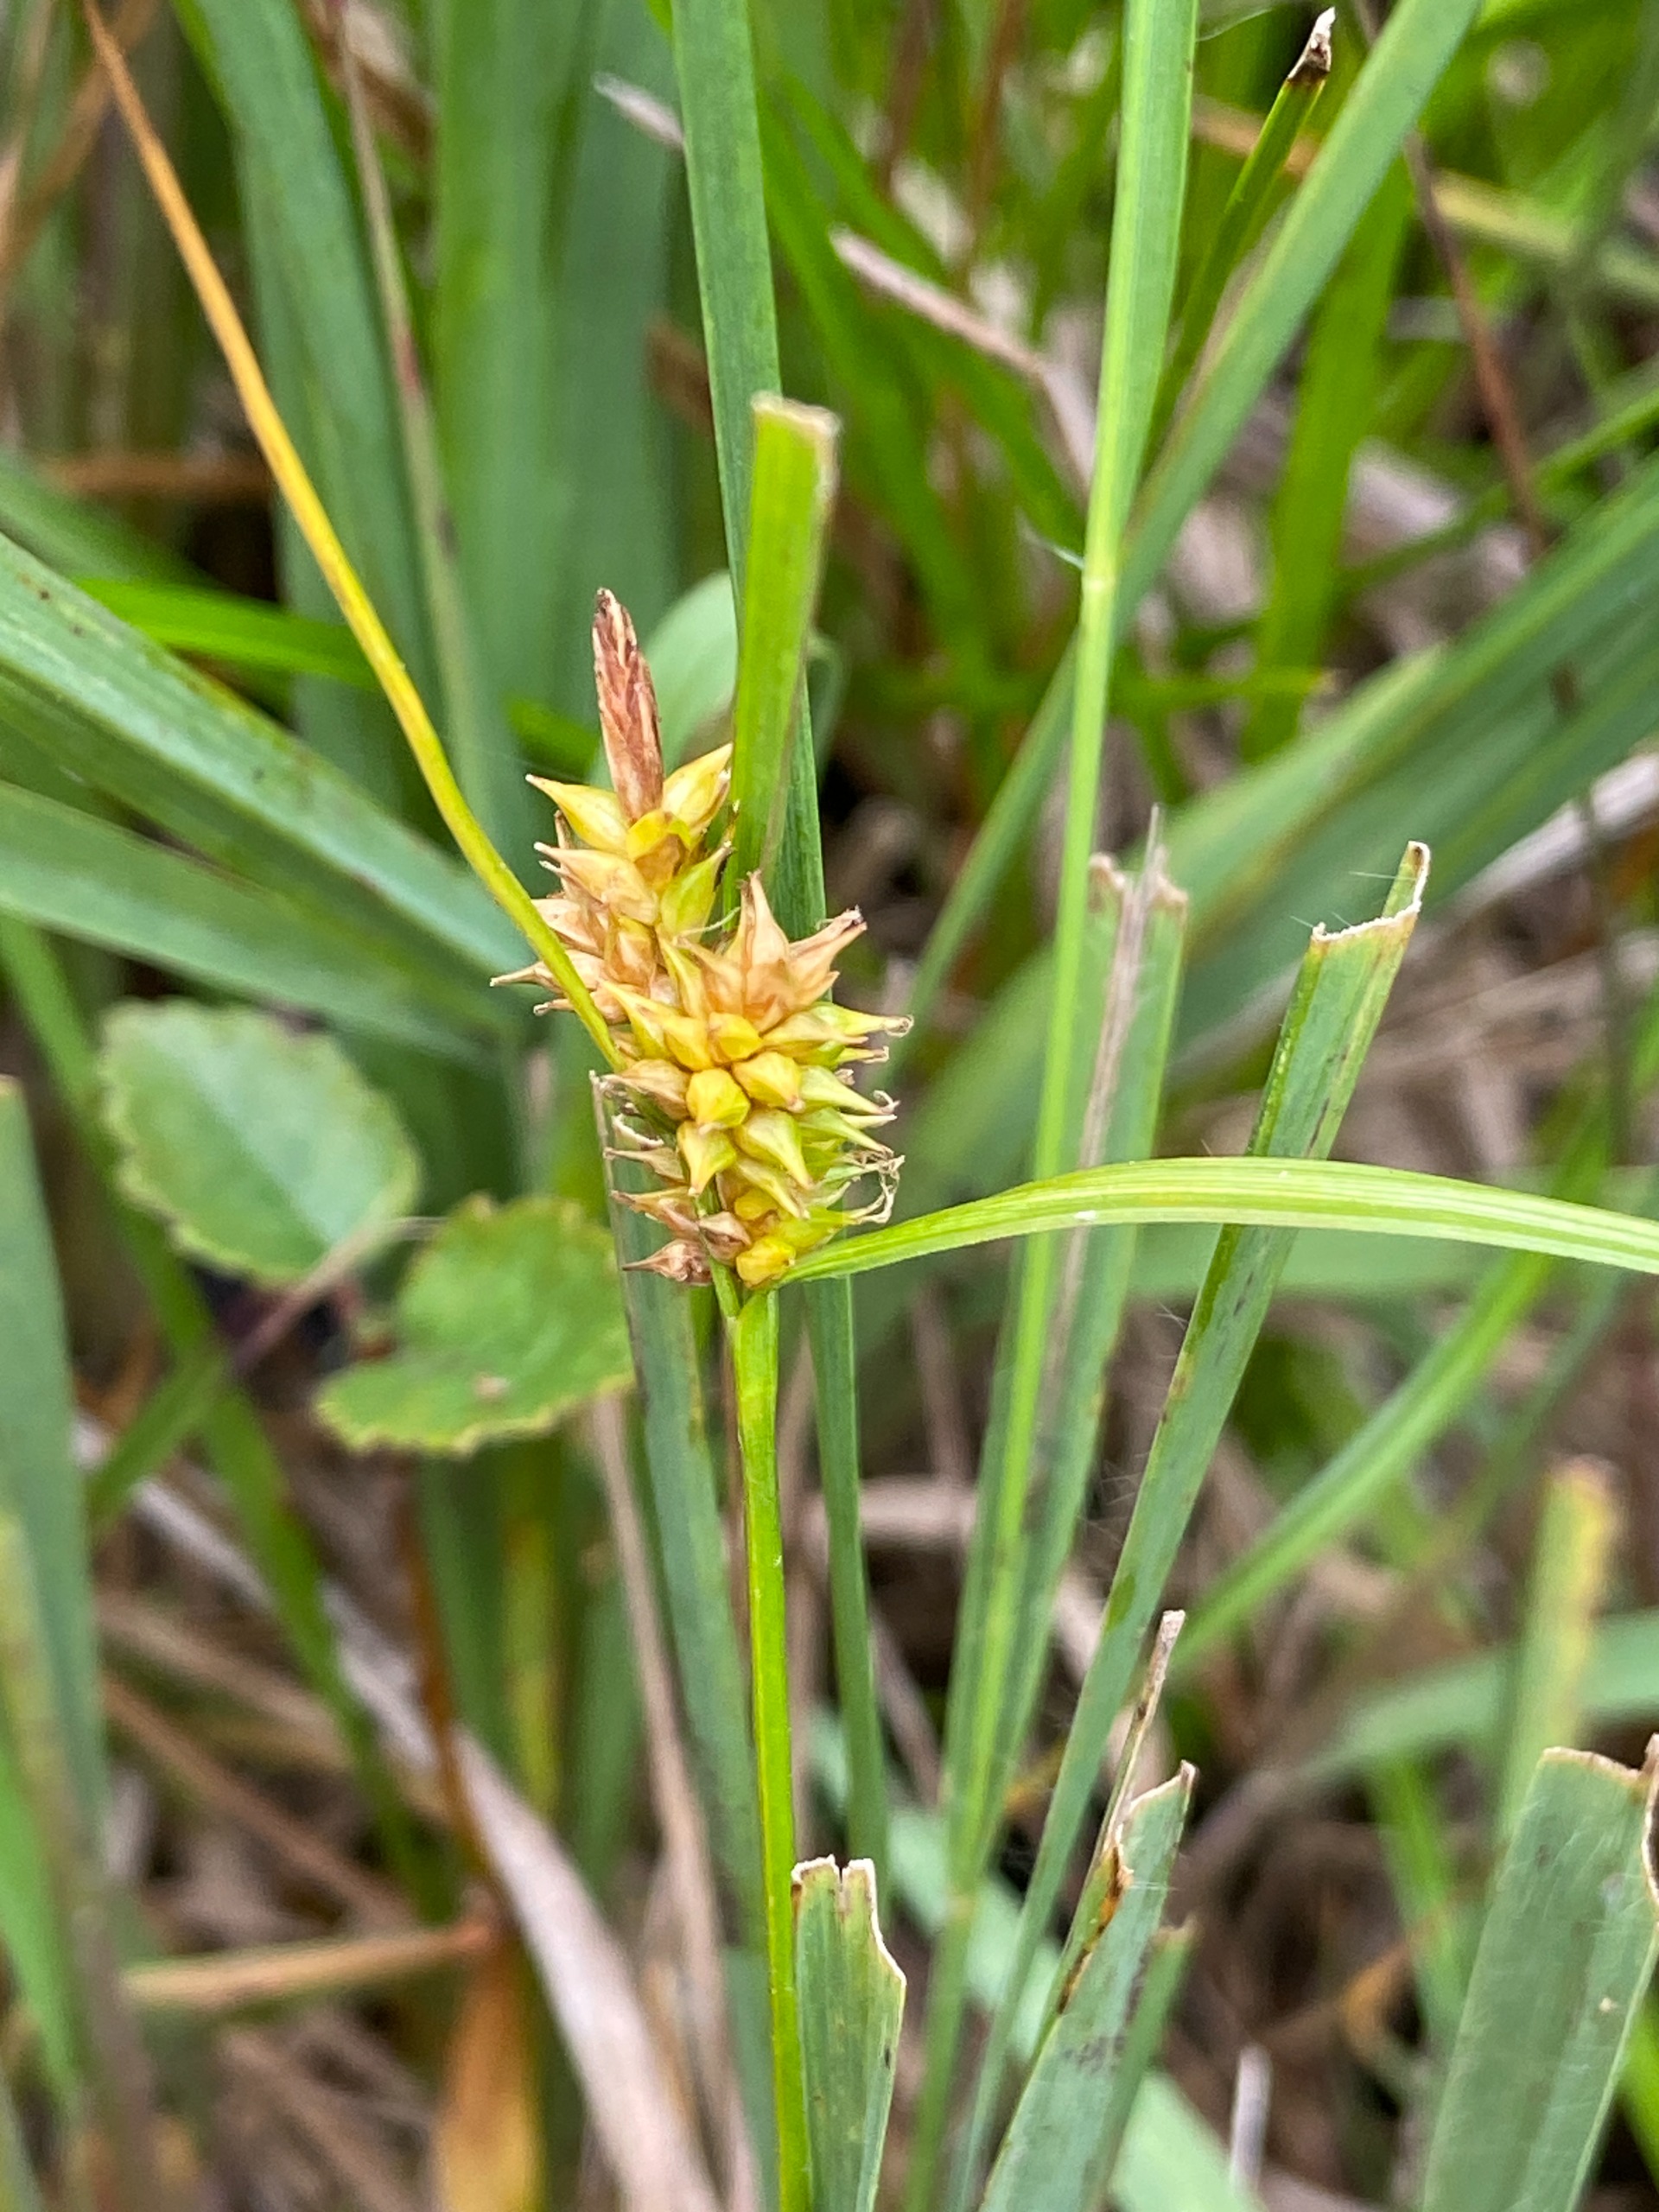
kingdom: Plantae
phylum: Tracheophyta
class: Liliopsida
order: Poales
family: Cyperaceae
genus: Carex
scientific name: Carex demissa
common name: Grøn star
